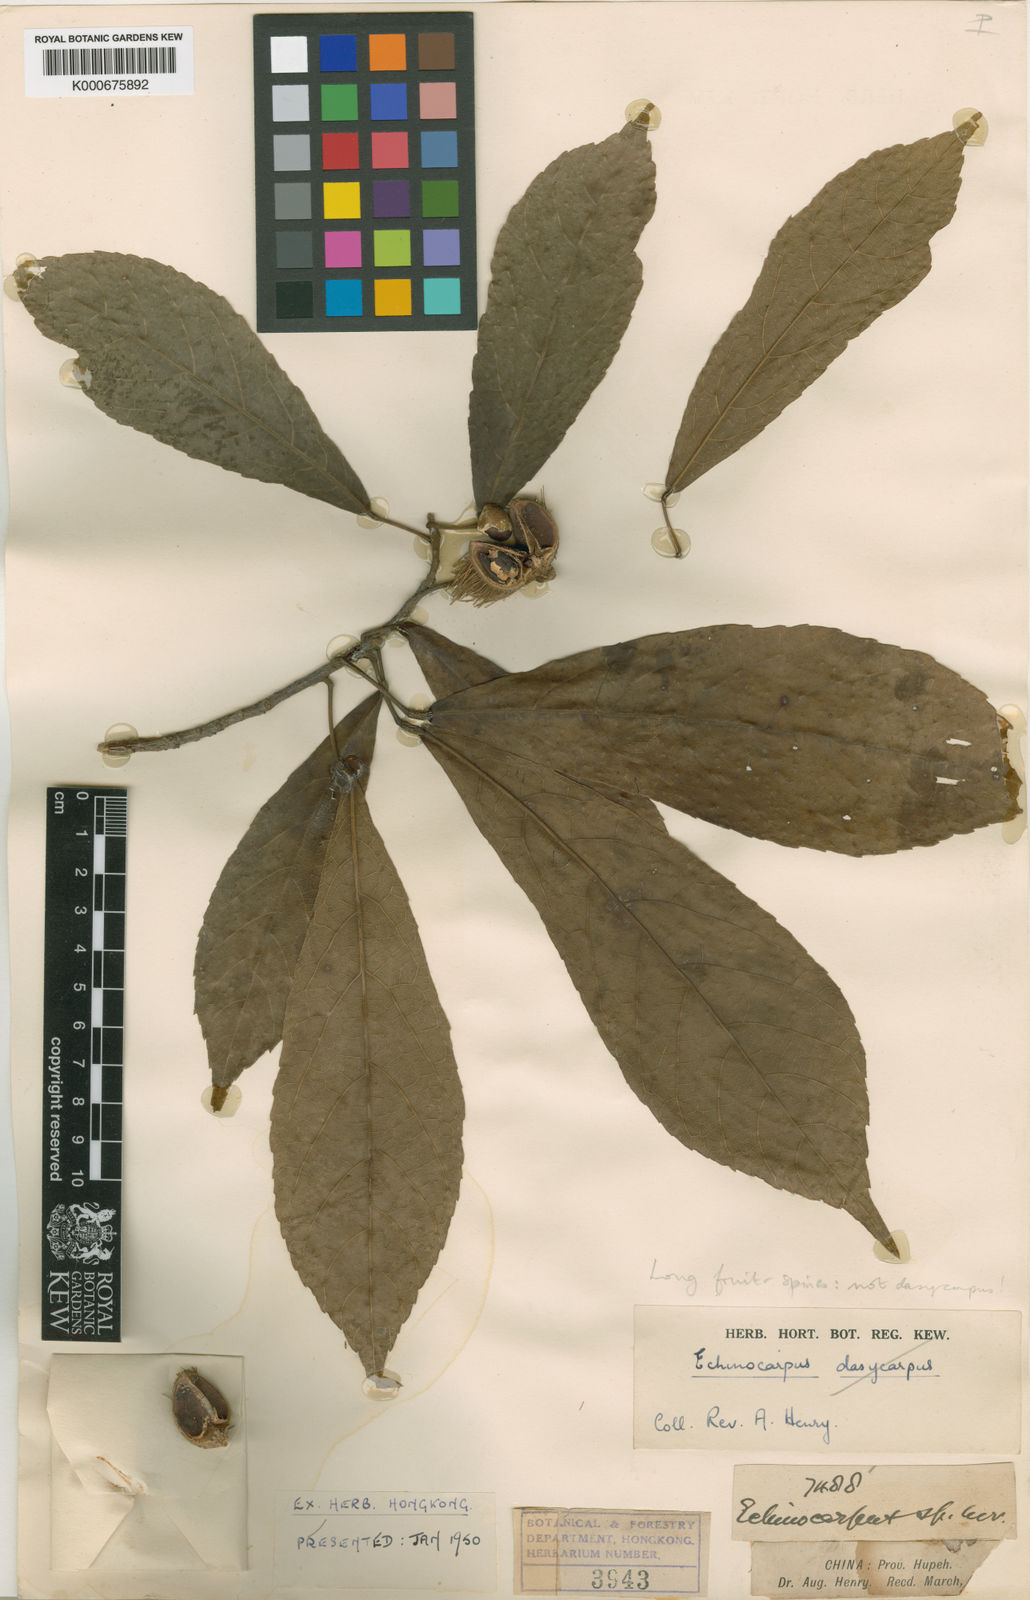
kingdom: Plantae
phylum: Tracheophyta
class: Magnoliopsida
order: Oxalidales
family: Elaeocarpaceae
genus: Sloanea
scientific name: Sloanea hemsleyana
